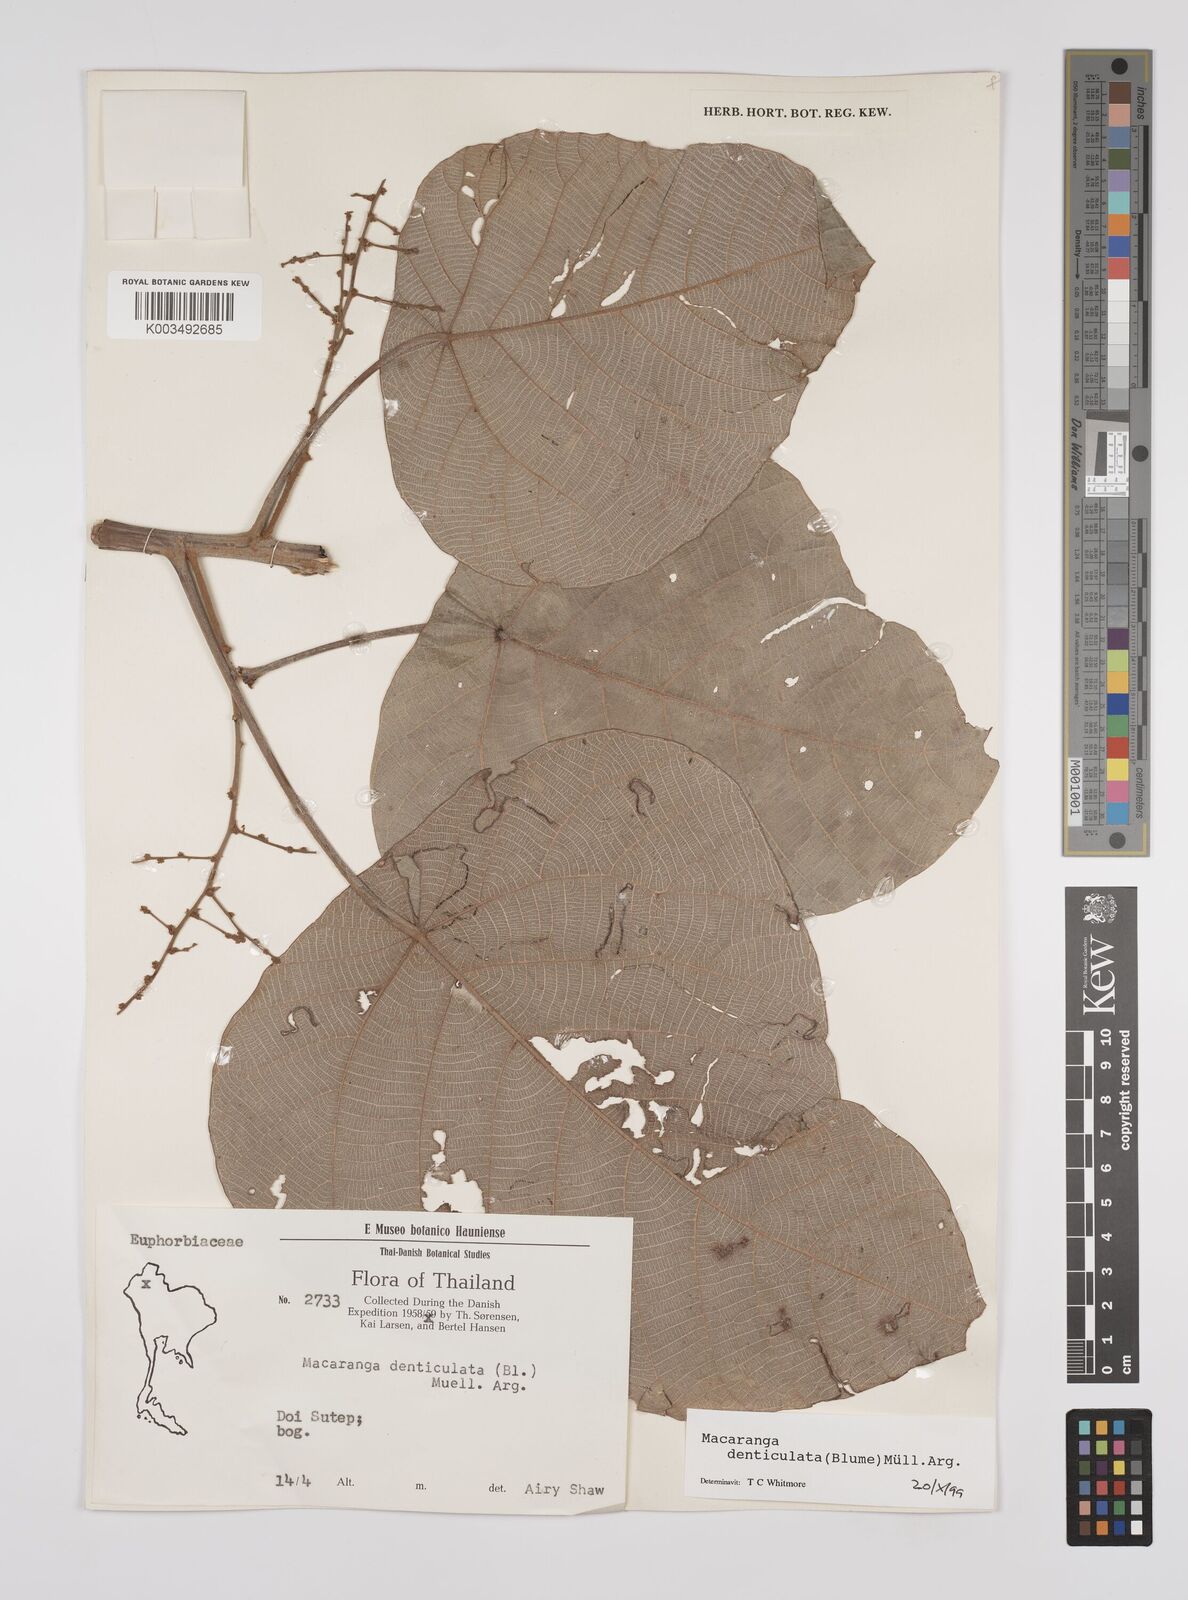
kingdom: Plantae
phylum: Tracheophyta
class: Magnoliopsida
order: Malpighiales
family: Euphorbiaceae
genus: Macaranga
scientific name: Macaranga denticulata
